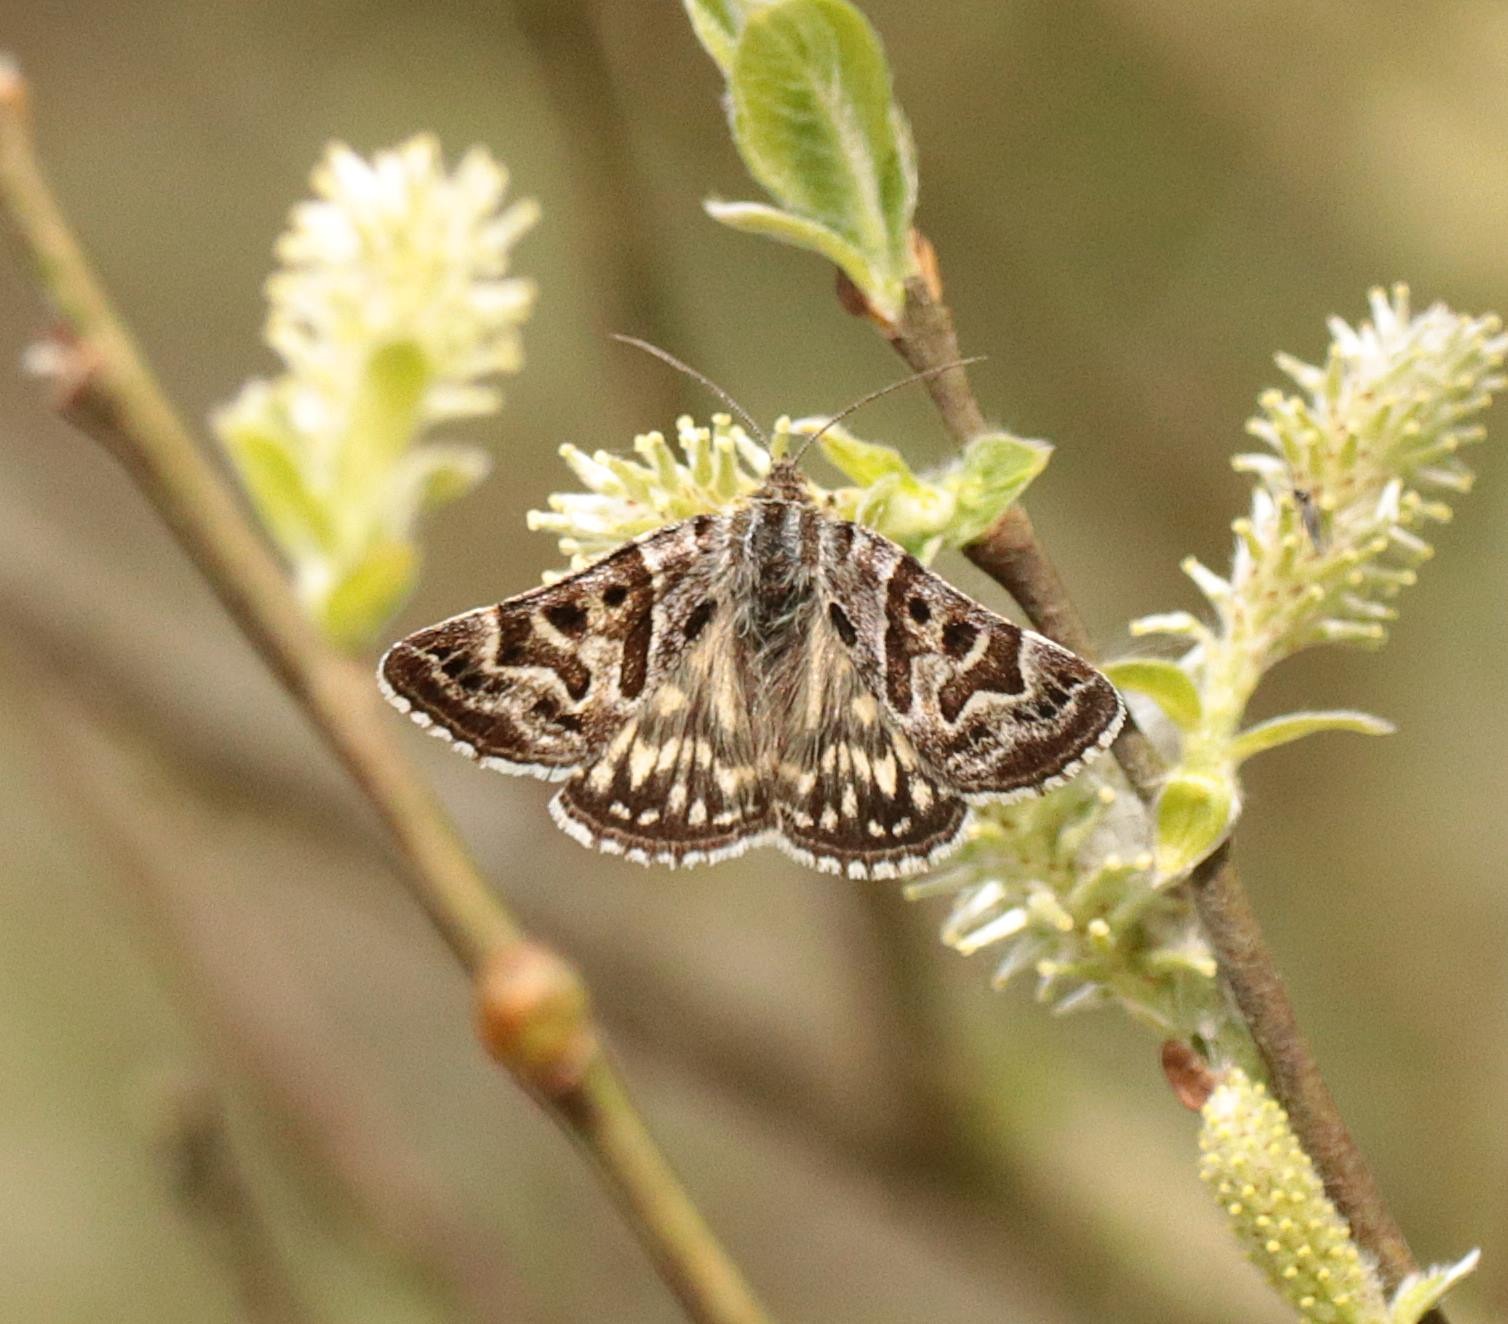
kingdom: Animalia
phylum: Arthropoda
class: Insecta
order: Lepidoptera
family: Erebidae
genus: Callistege
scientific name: Callistege mi
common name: Marmoreret kløverugle
